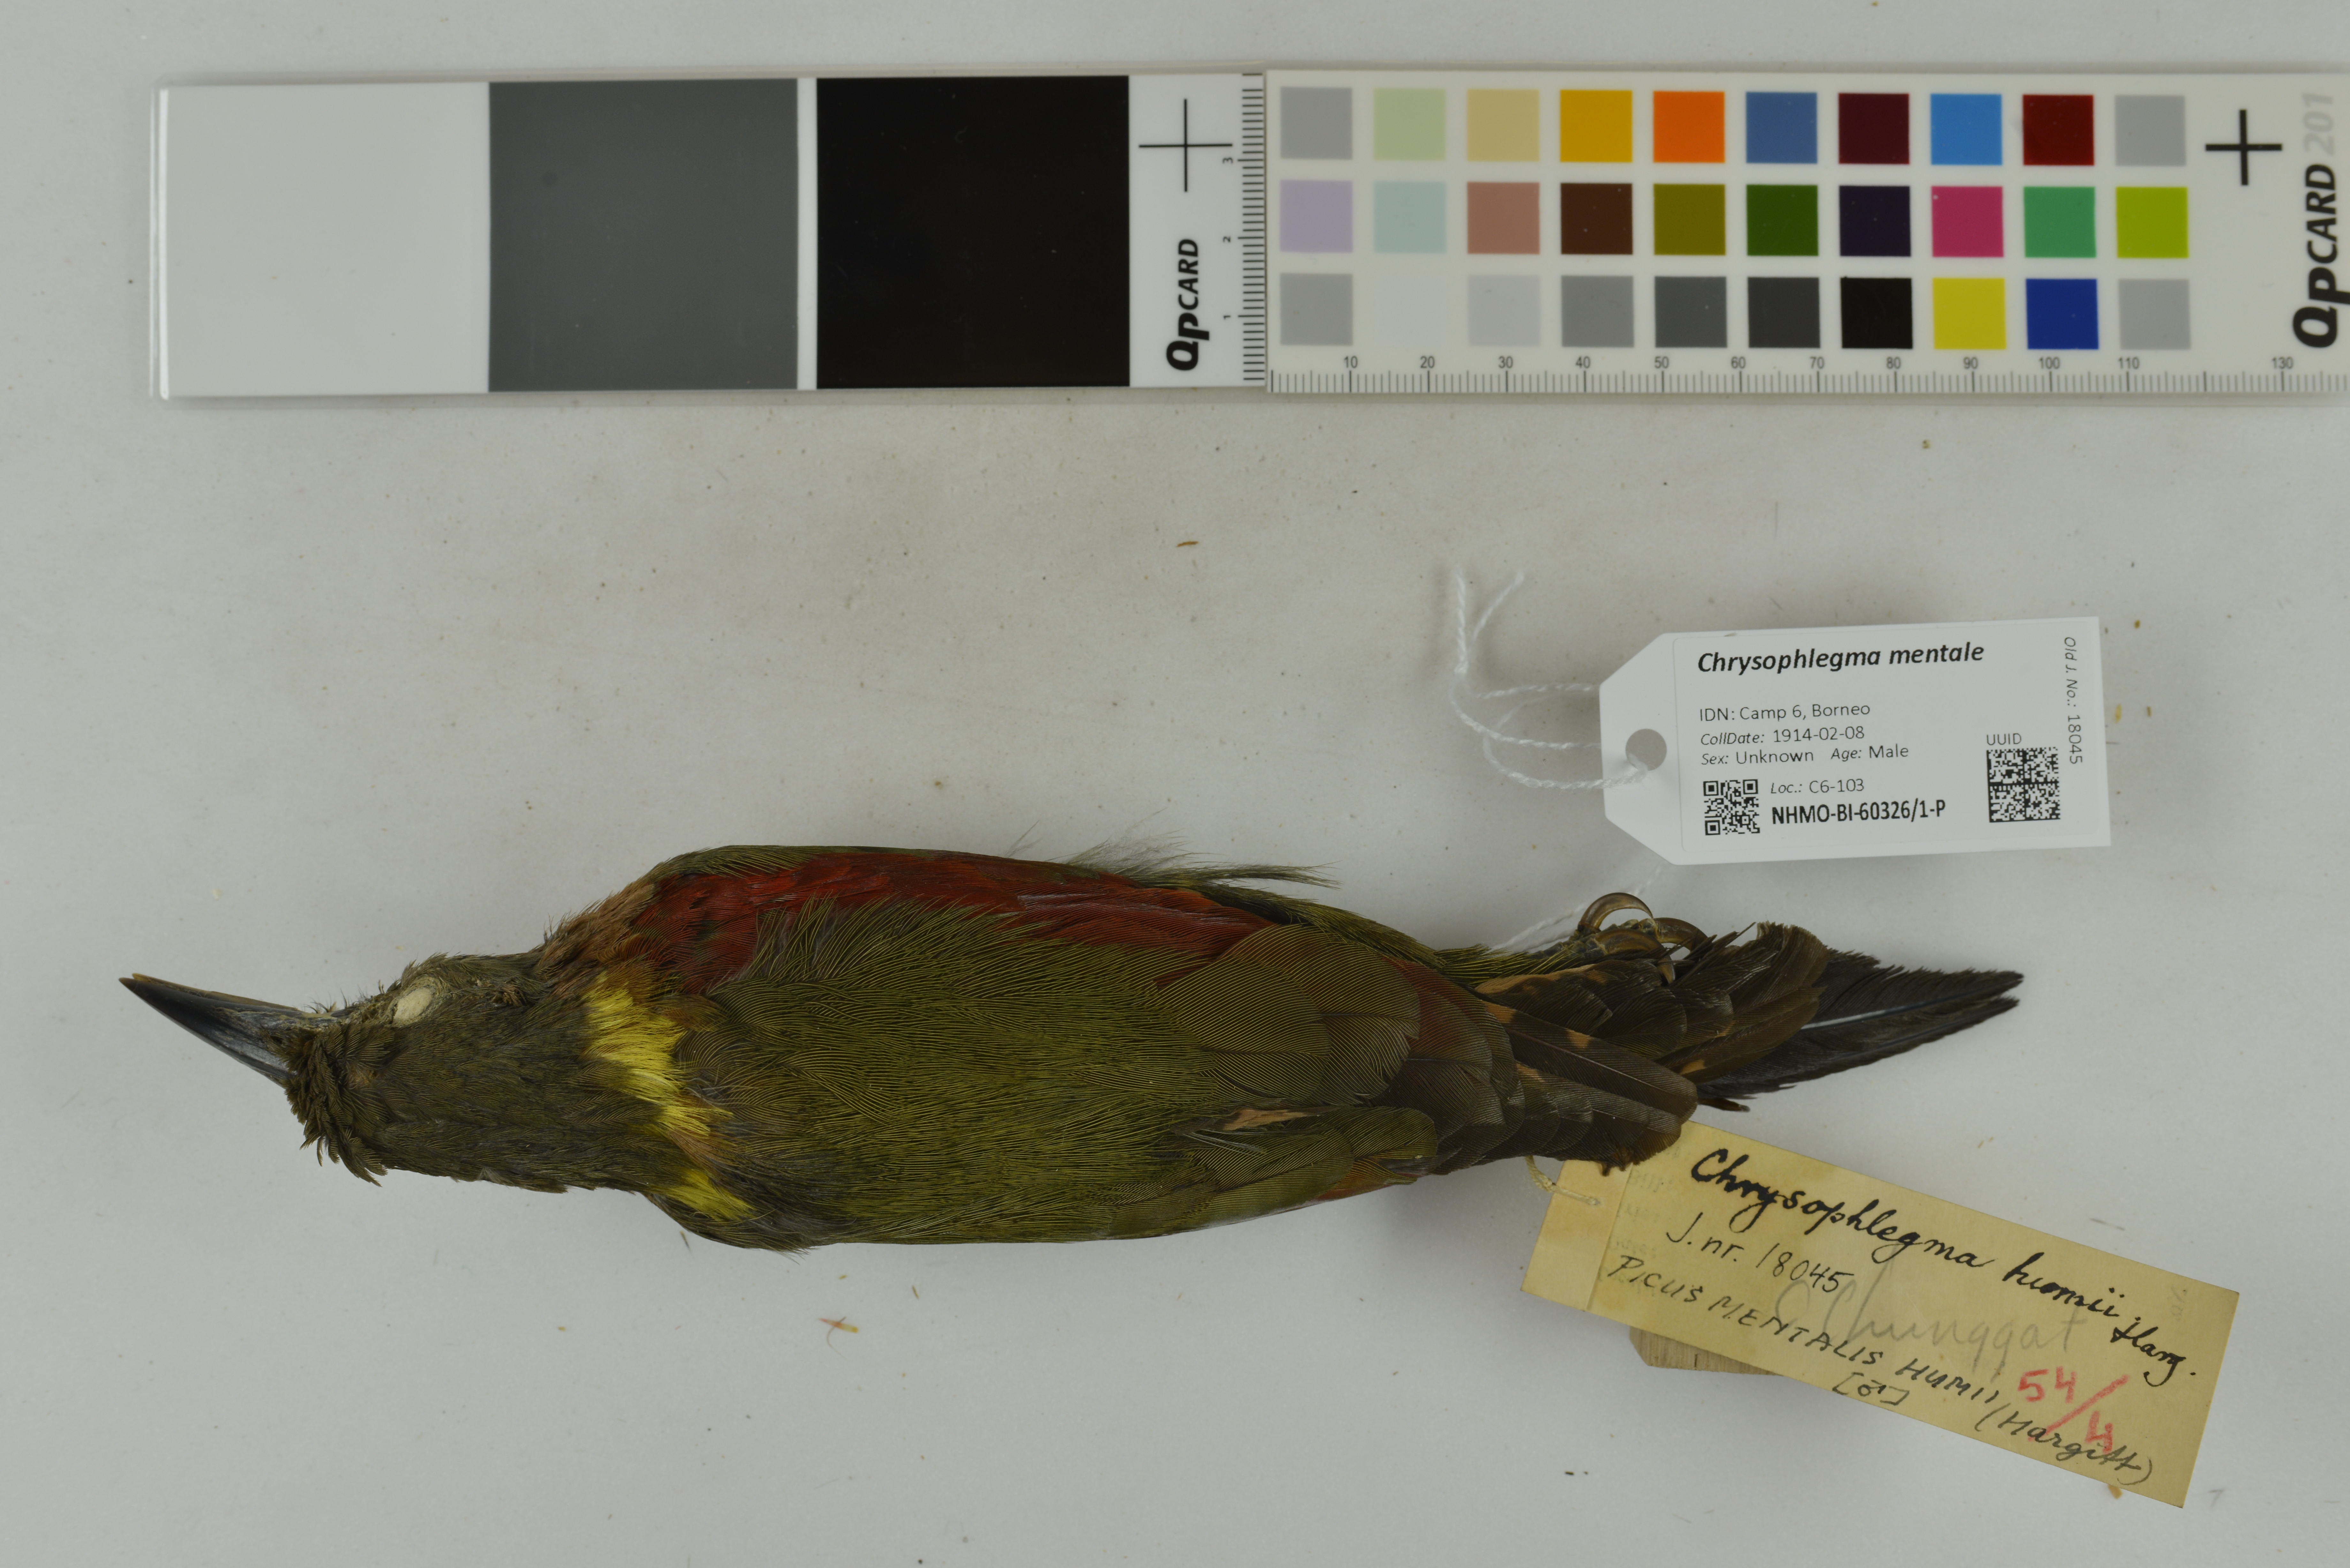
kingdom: Animalia
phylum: Chordata
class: Aves
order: Piciformes
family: Picidae
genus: Chrysophlegma
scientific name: Chrysophlegma mentale
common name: Checker-throated woodpecker
